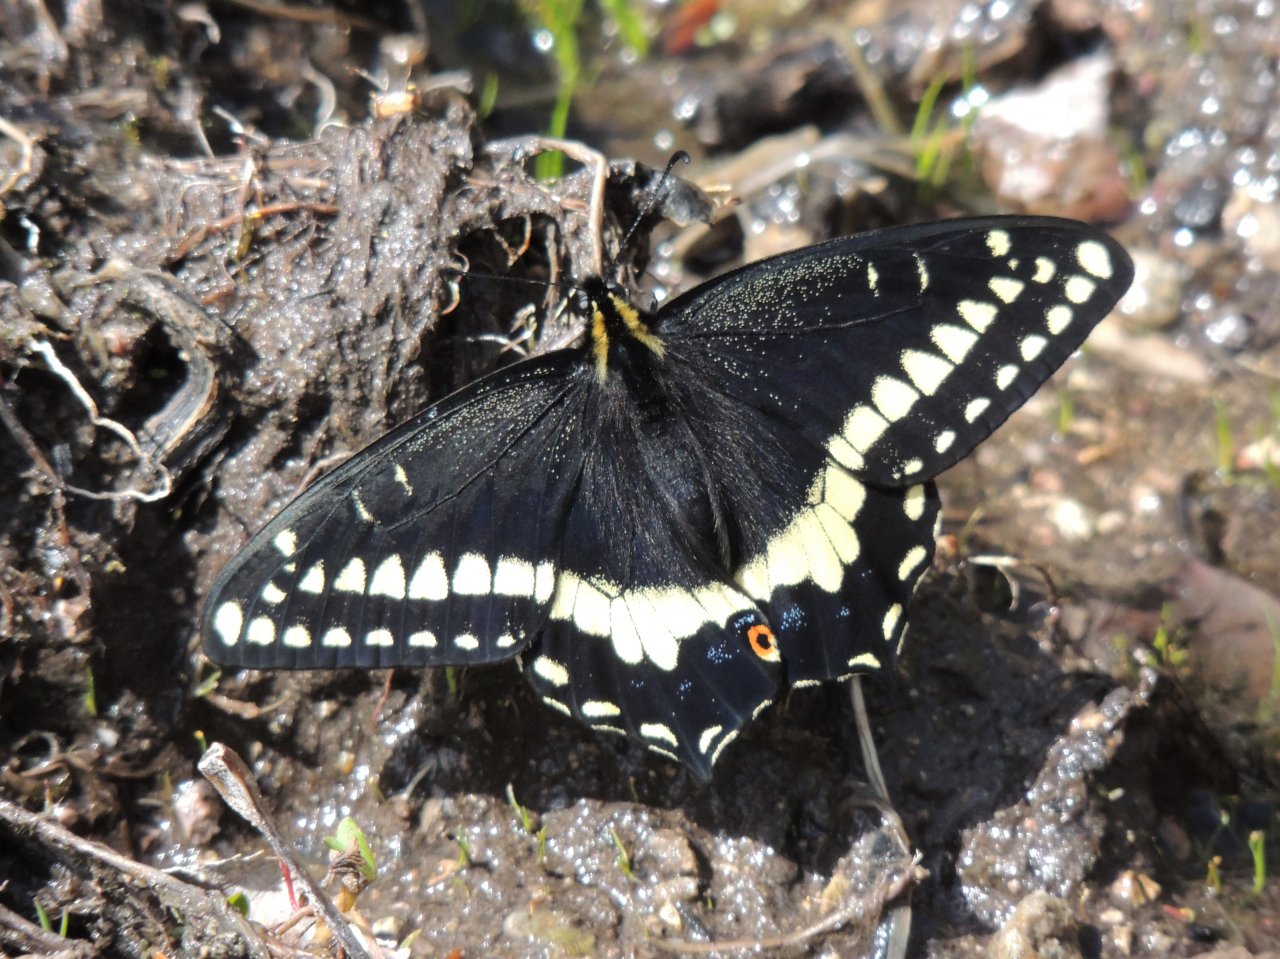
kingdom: Animalia
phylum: Arthropoda
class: Insecta
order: Lepidoptera
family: Papilionidae
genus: Papilio
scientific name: Papilio indra
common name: Indra Swallowtail
